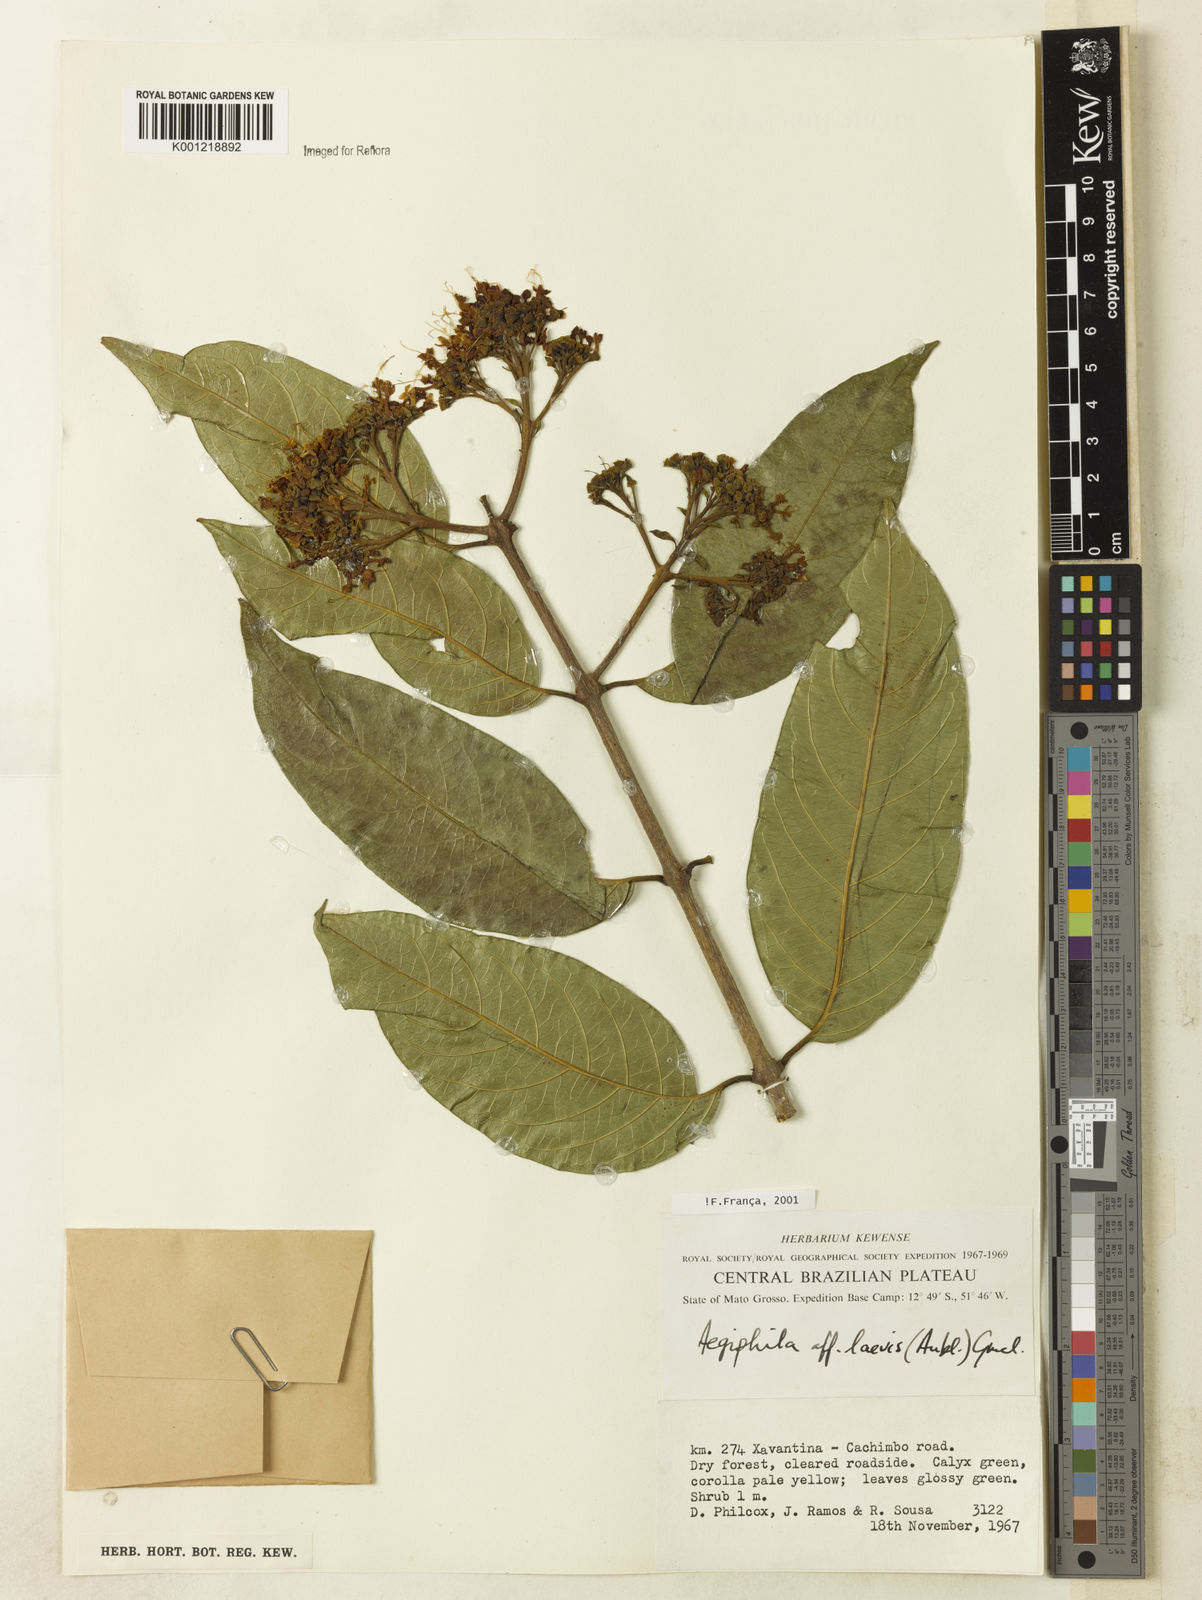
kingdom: Plantae
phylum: Tracheophyta
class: Magnoliopsida
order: Lamiales
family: Lamiaceae
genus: Aegiphila
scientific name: Aegiphila laevis
